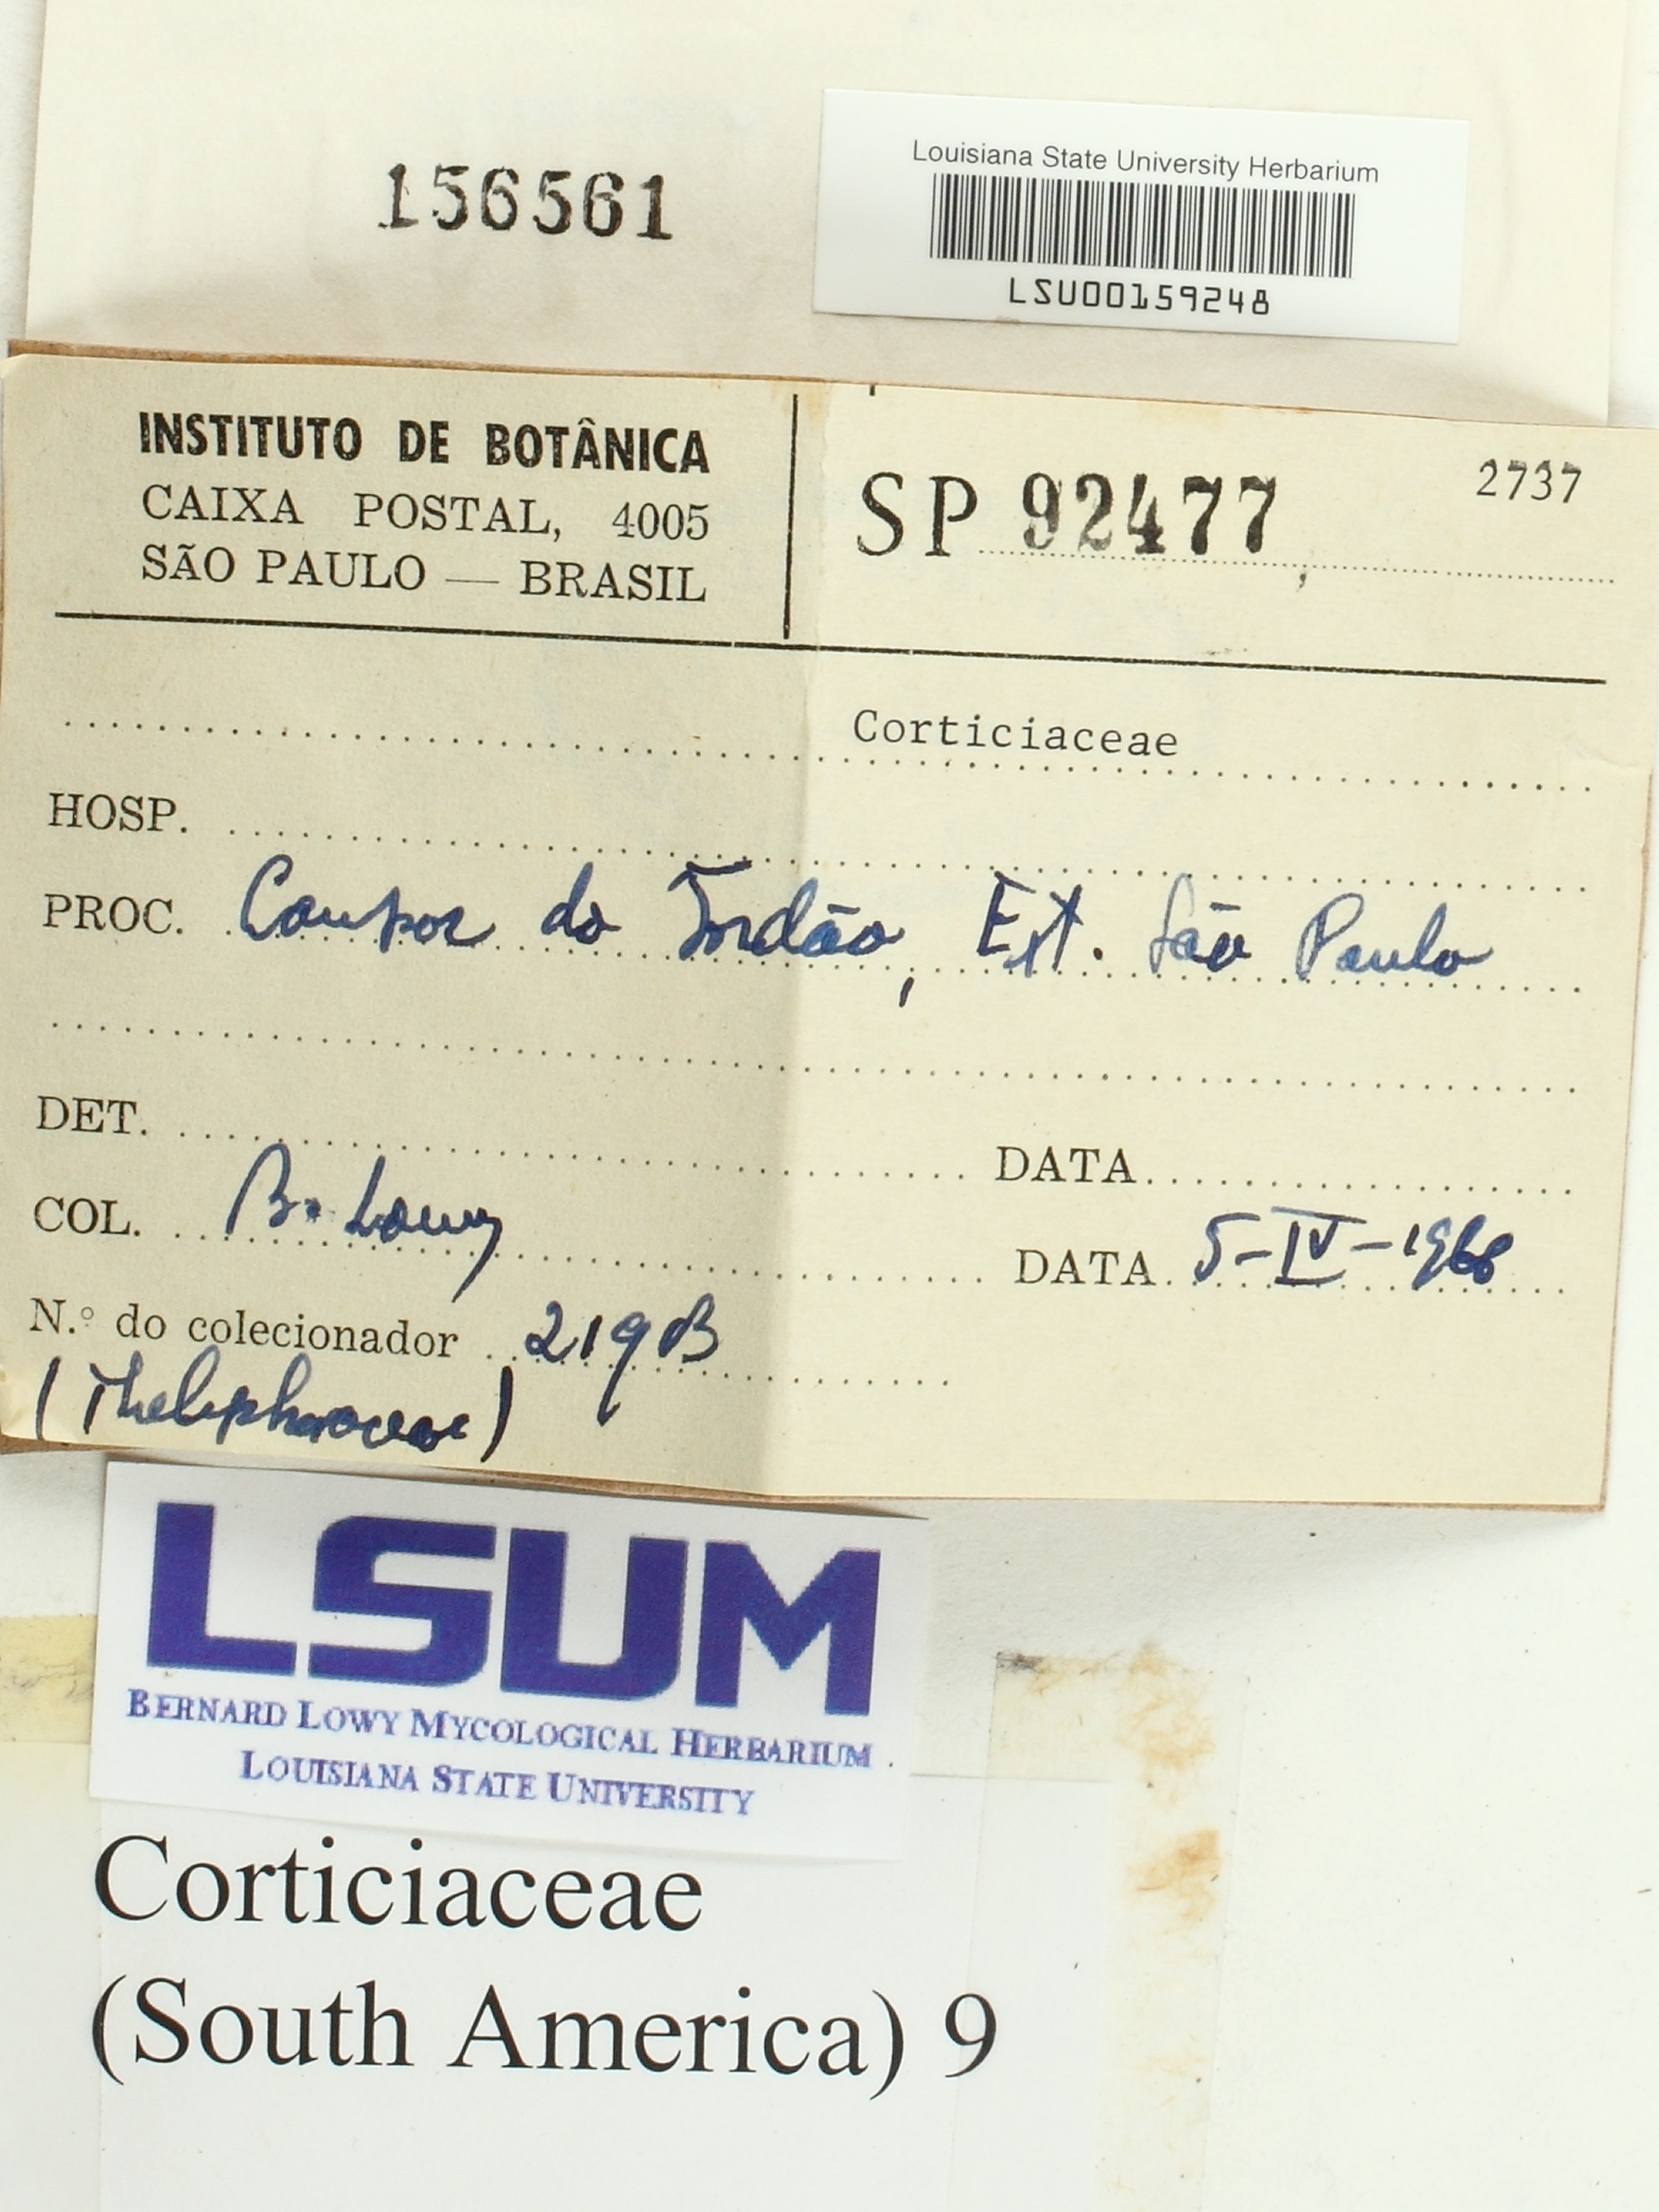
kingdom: Fungi
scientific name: Fungi
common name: Fungi
